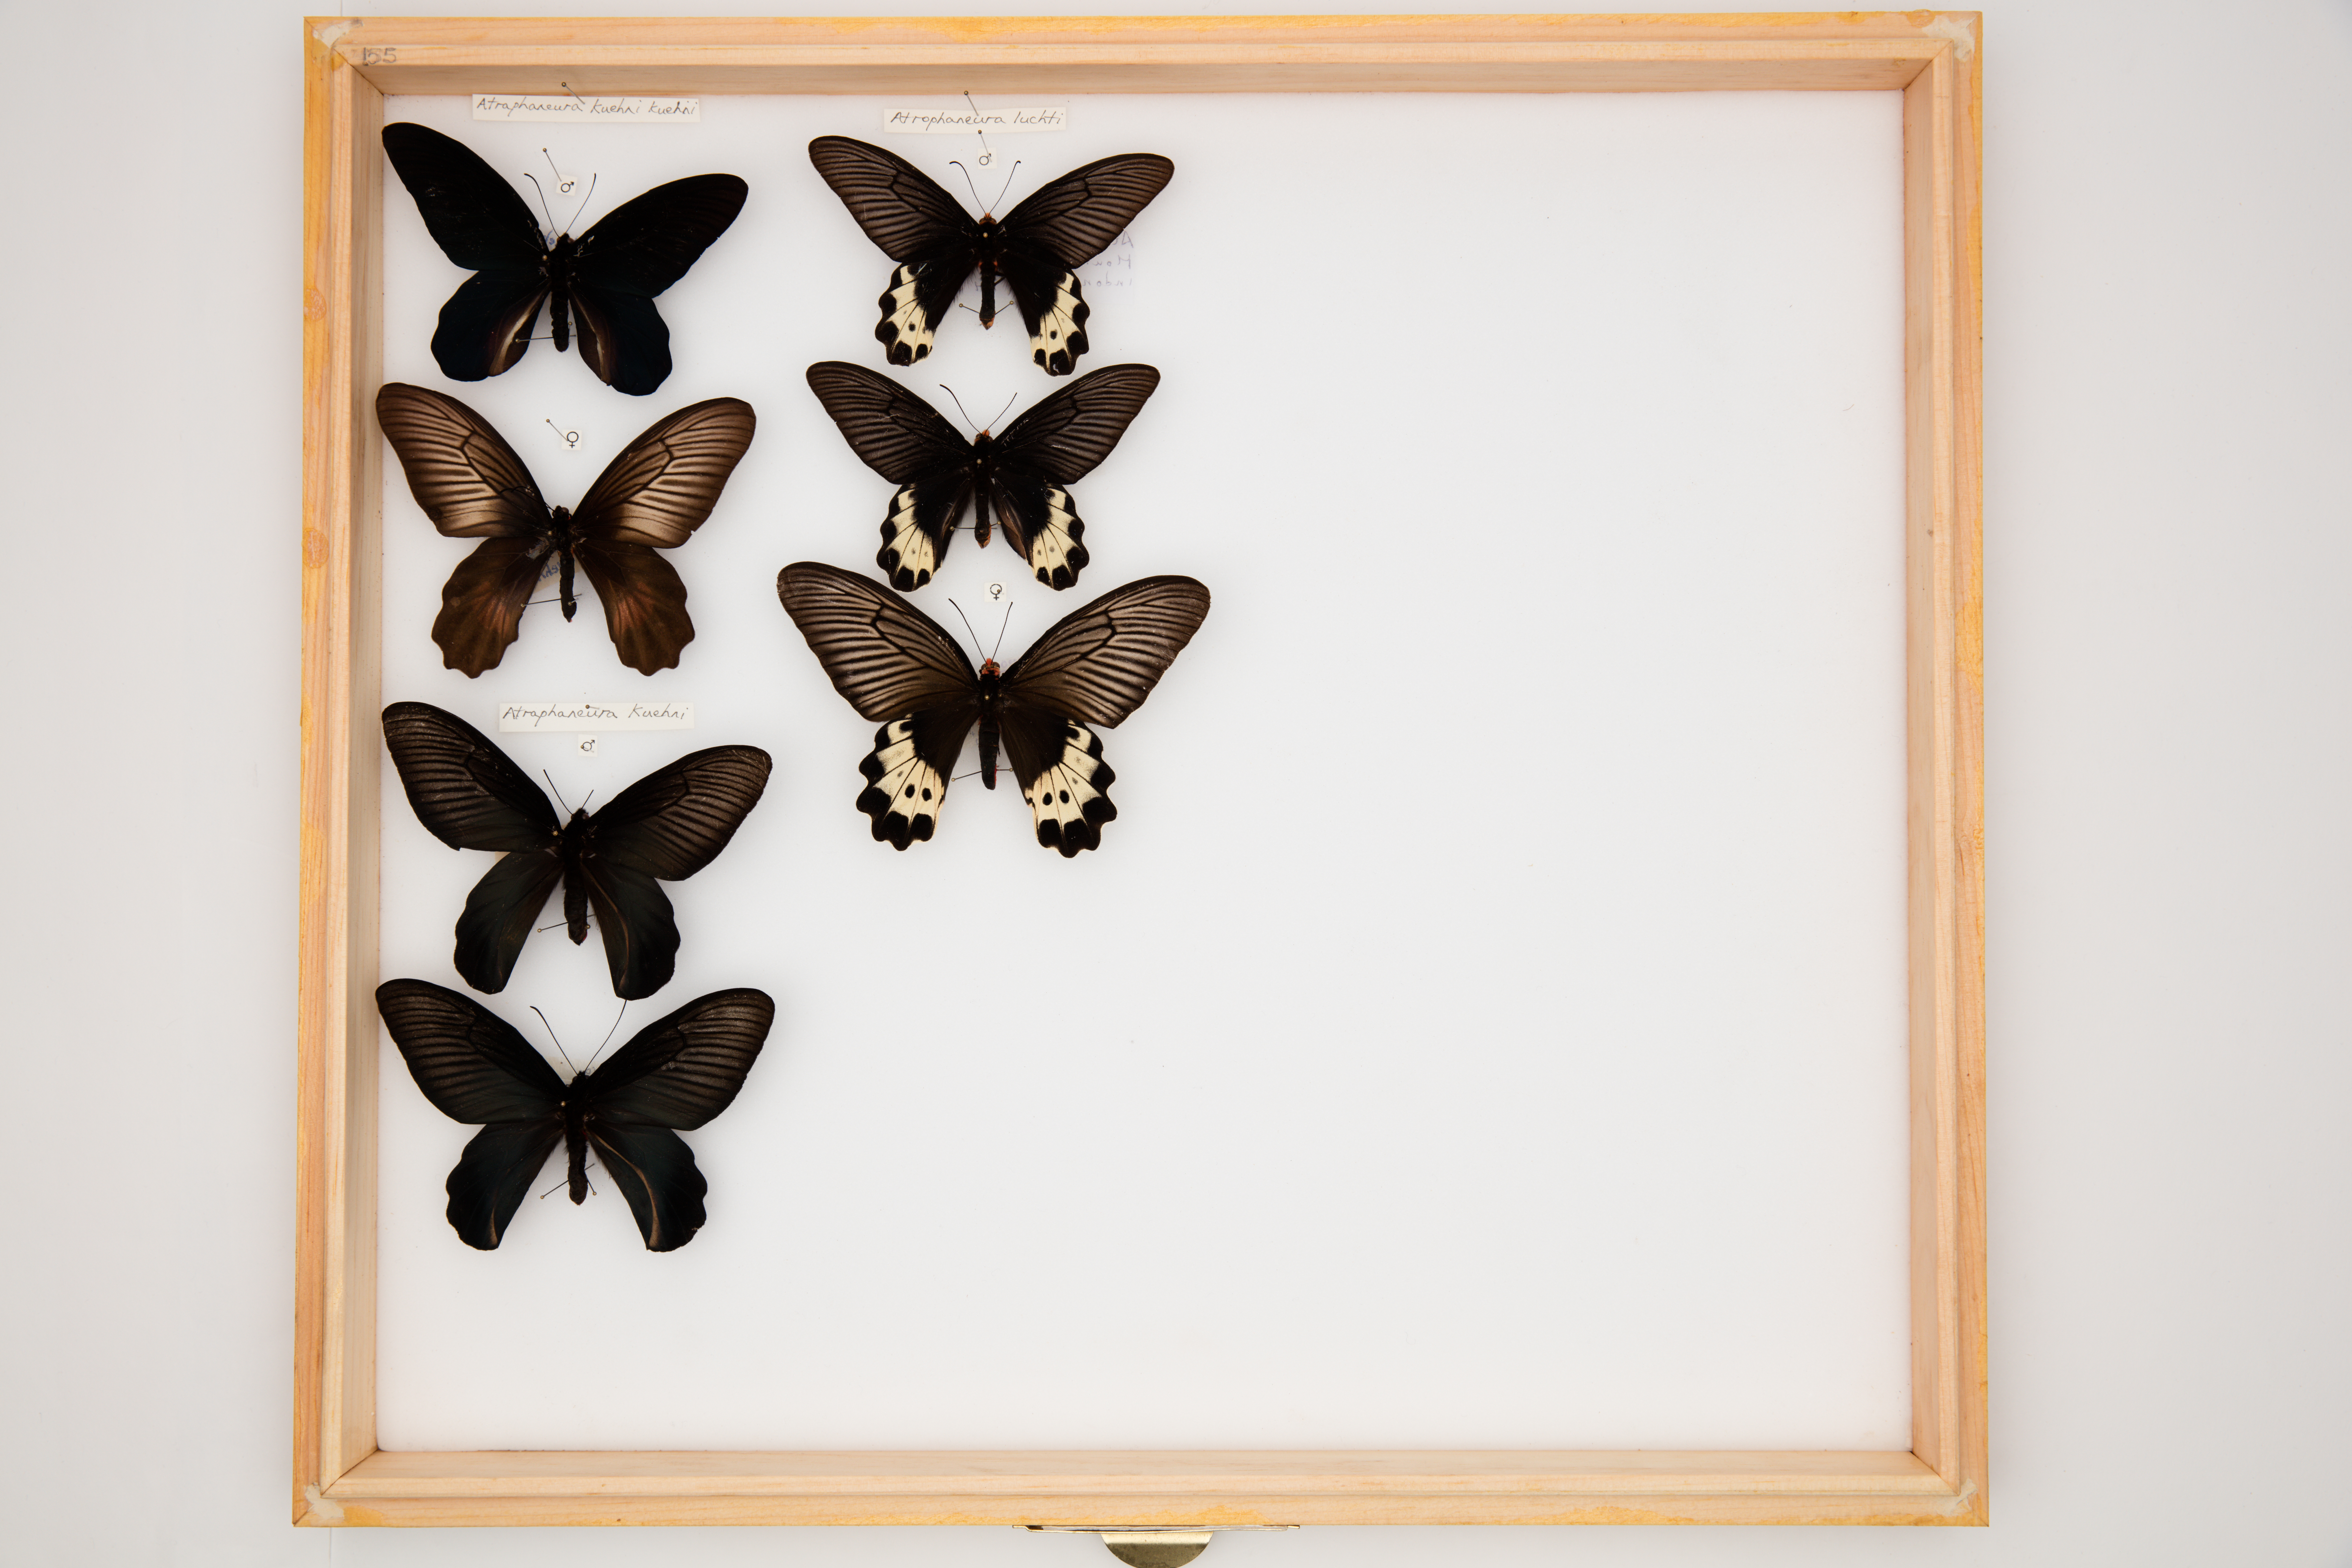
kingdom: Animalia
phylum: Arthropoda
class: Insecta
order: Lepidoptera
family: Papilionidae
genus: Atrophaneura
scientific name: Atrophaneura luchti
